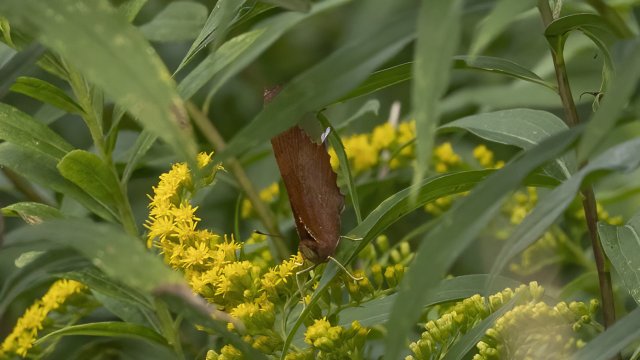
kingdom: Animalia
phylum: Arthropoda
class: Insecta
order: Lepidoptera
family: Nymphalidae
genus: Polygonia
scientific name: Polygonia interrogationis
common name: Question Mark
